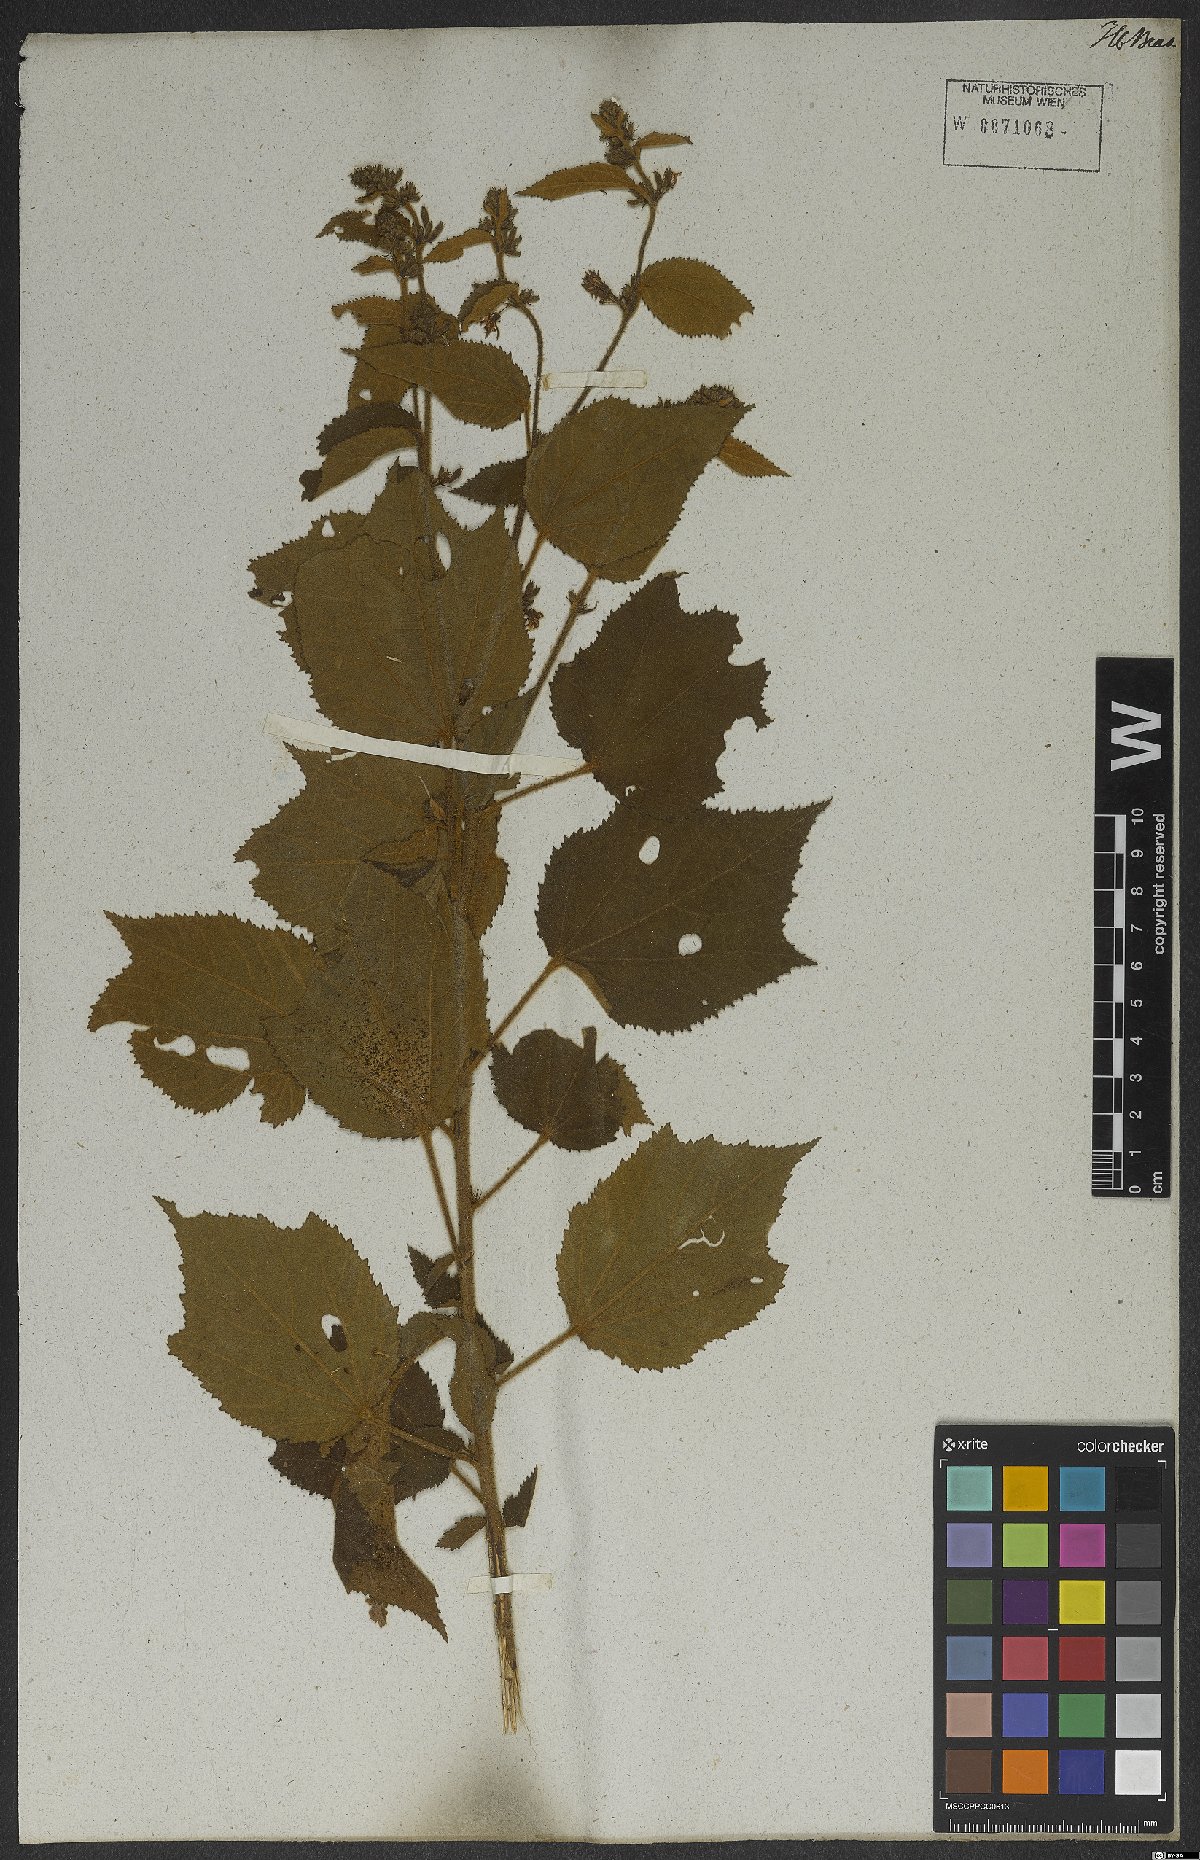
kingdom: Plantae
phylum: Tracheophyta
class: Magnoliopsida
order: Malvales
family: Malvaceae
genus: Triumfetta
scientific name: Triumfetta mollissima
